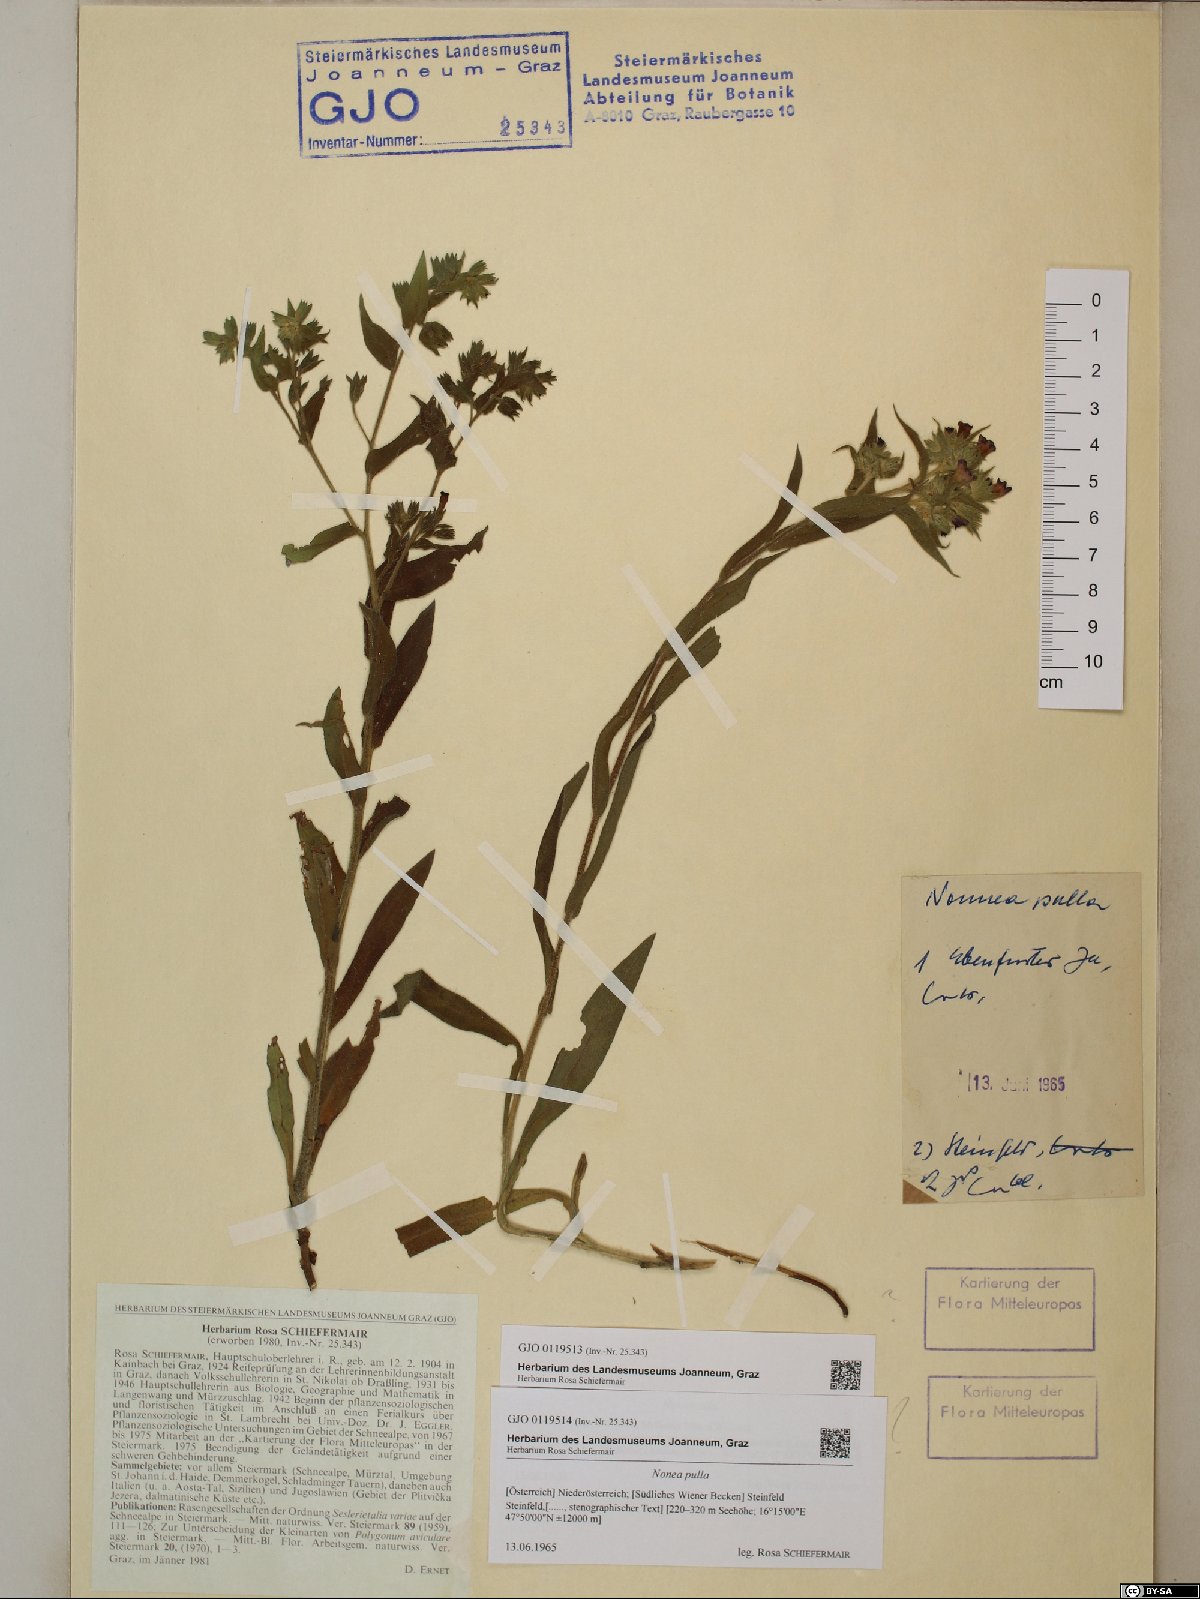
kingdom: Plantae
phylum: Tracheophyta
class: Magnoliopsida
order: Boraginales
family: Boraginaceae
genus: Nonea
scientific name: Nonea pulla
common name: Brown nonea
